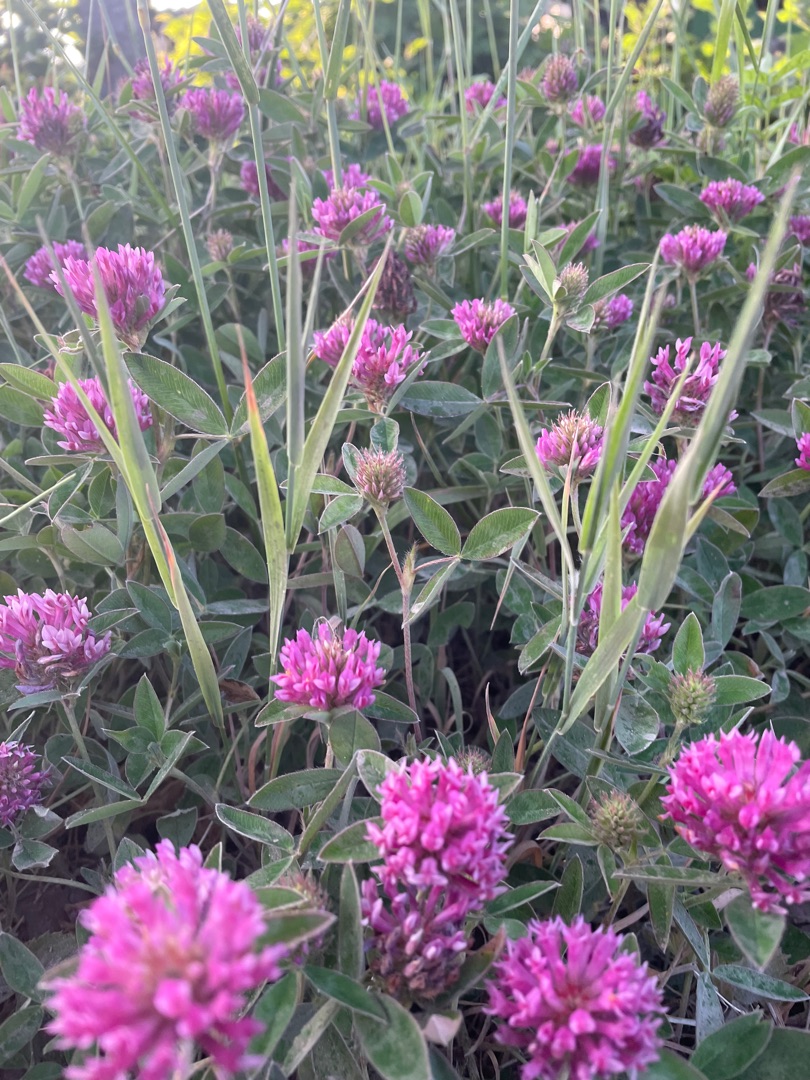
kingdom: Plantae
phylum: Tracheophyta
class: Magnoliopsida
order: Fabales
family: Fabaceae
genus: Trifolium
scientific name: Trifolium pratense
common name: Rød-kløver
